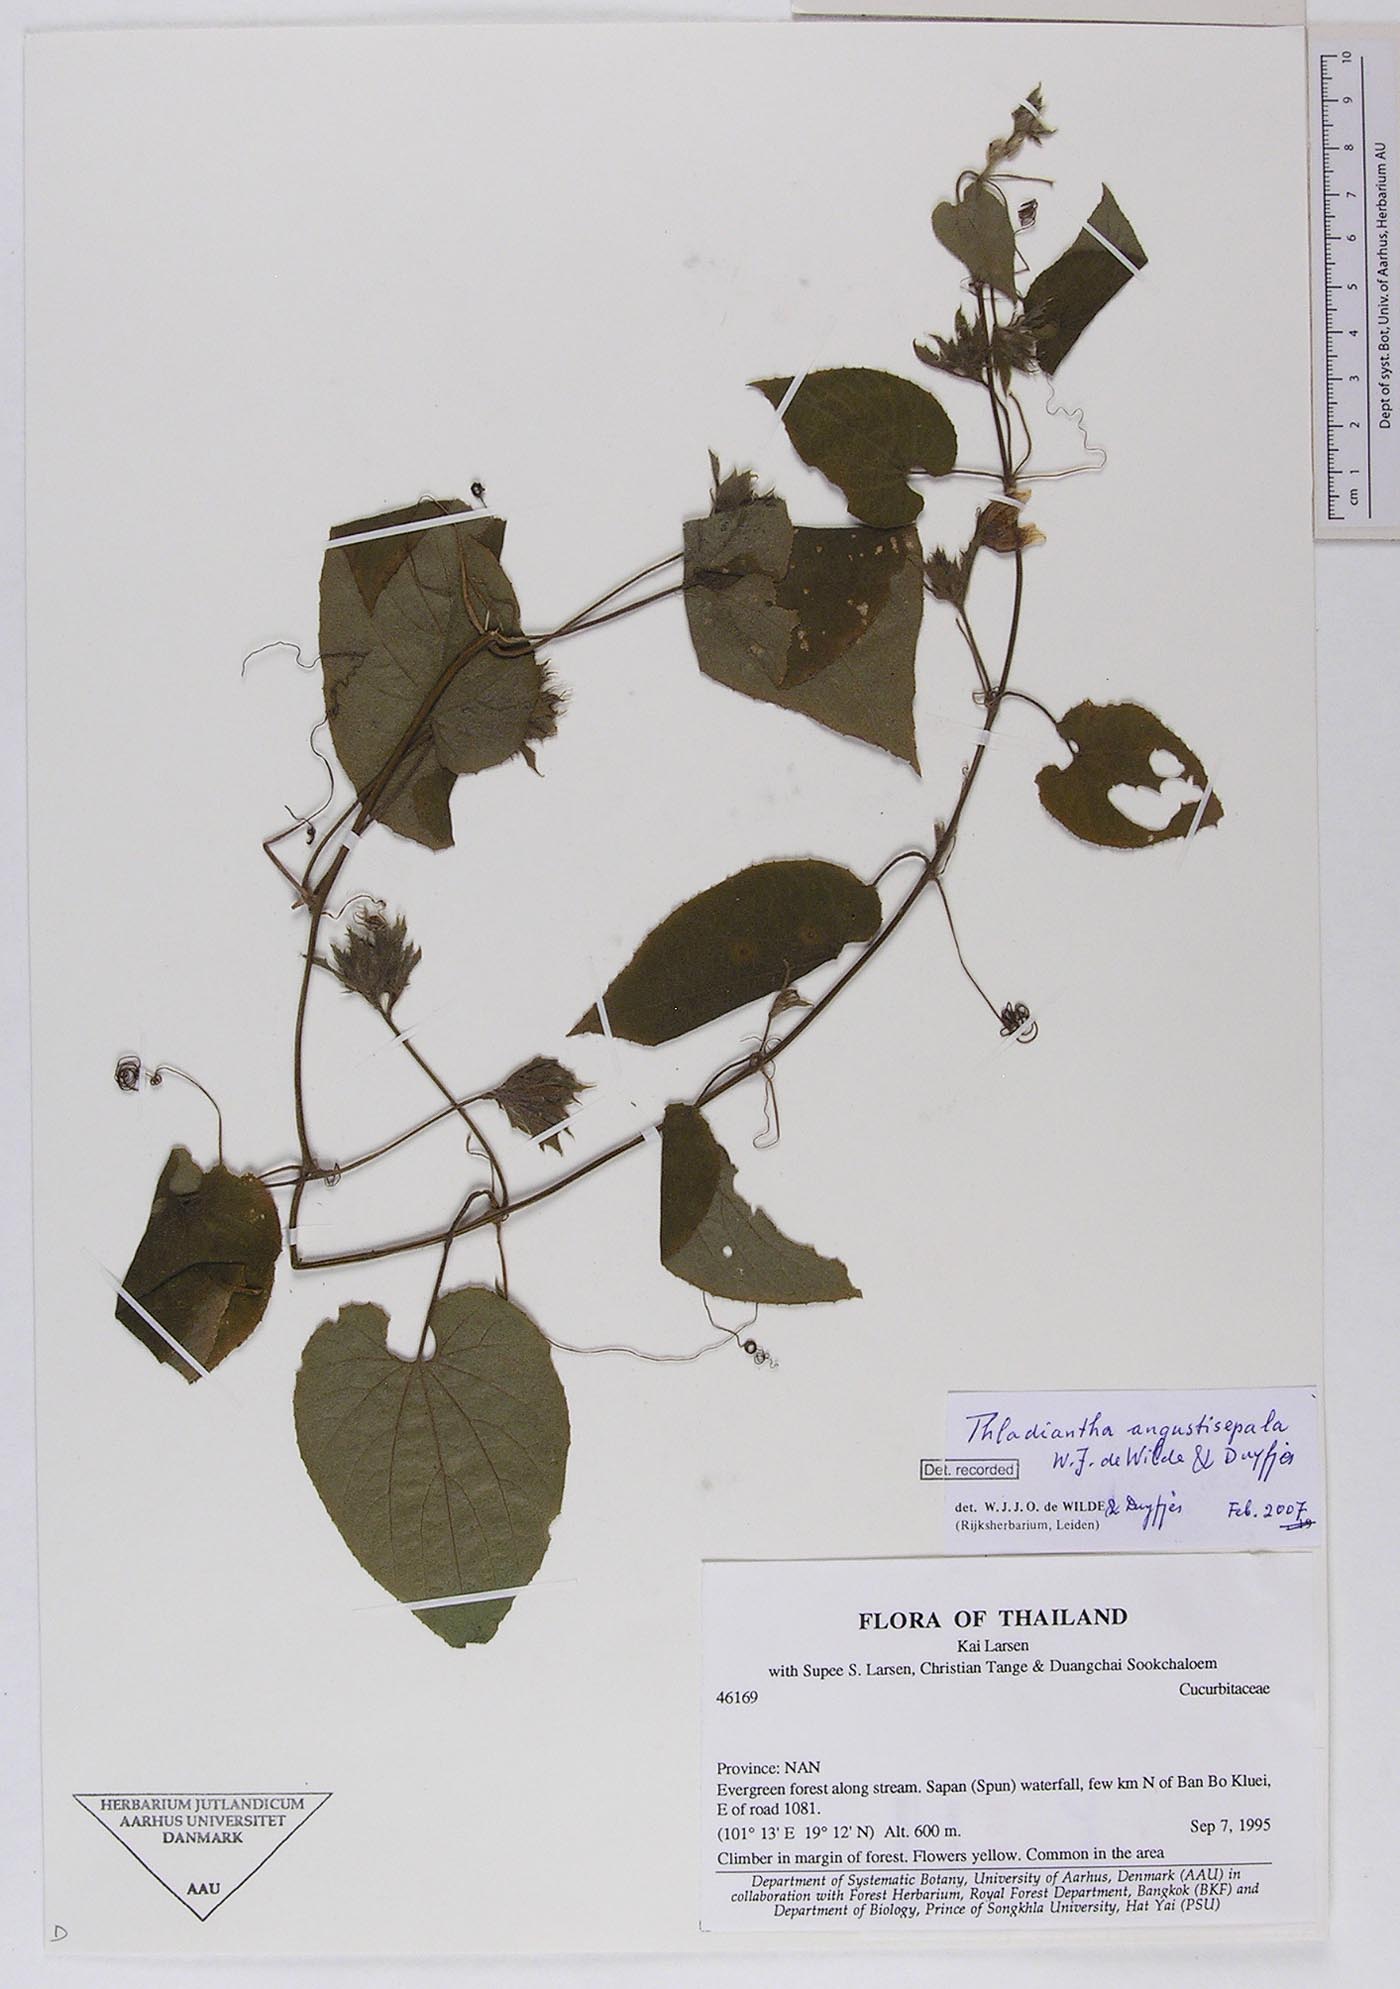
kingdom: Plantae
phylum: Tracheophyta
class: Magnoliopsida
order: Cucurbitales
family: Cucurbitaceae
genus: Thladiantha
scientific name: Thladiantha angustisepala
